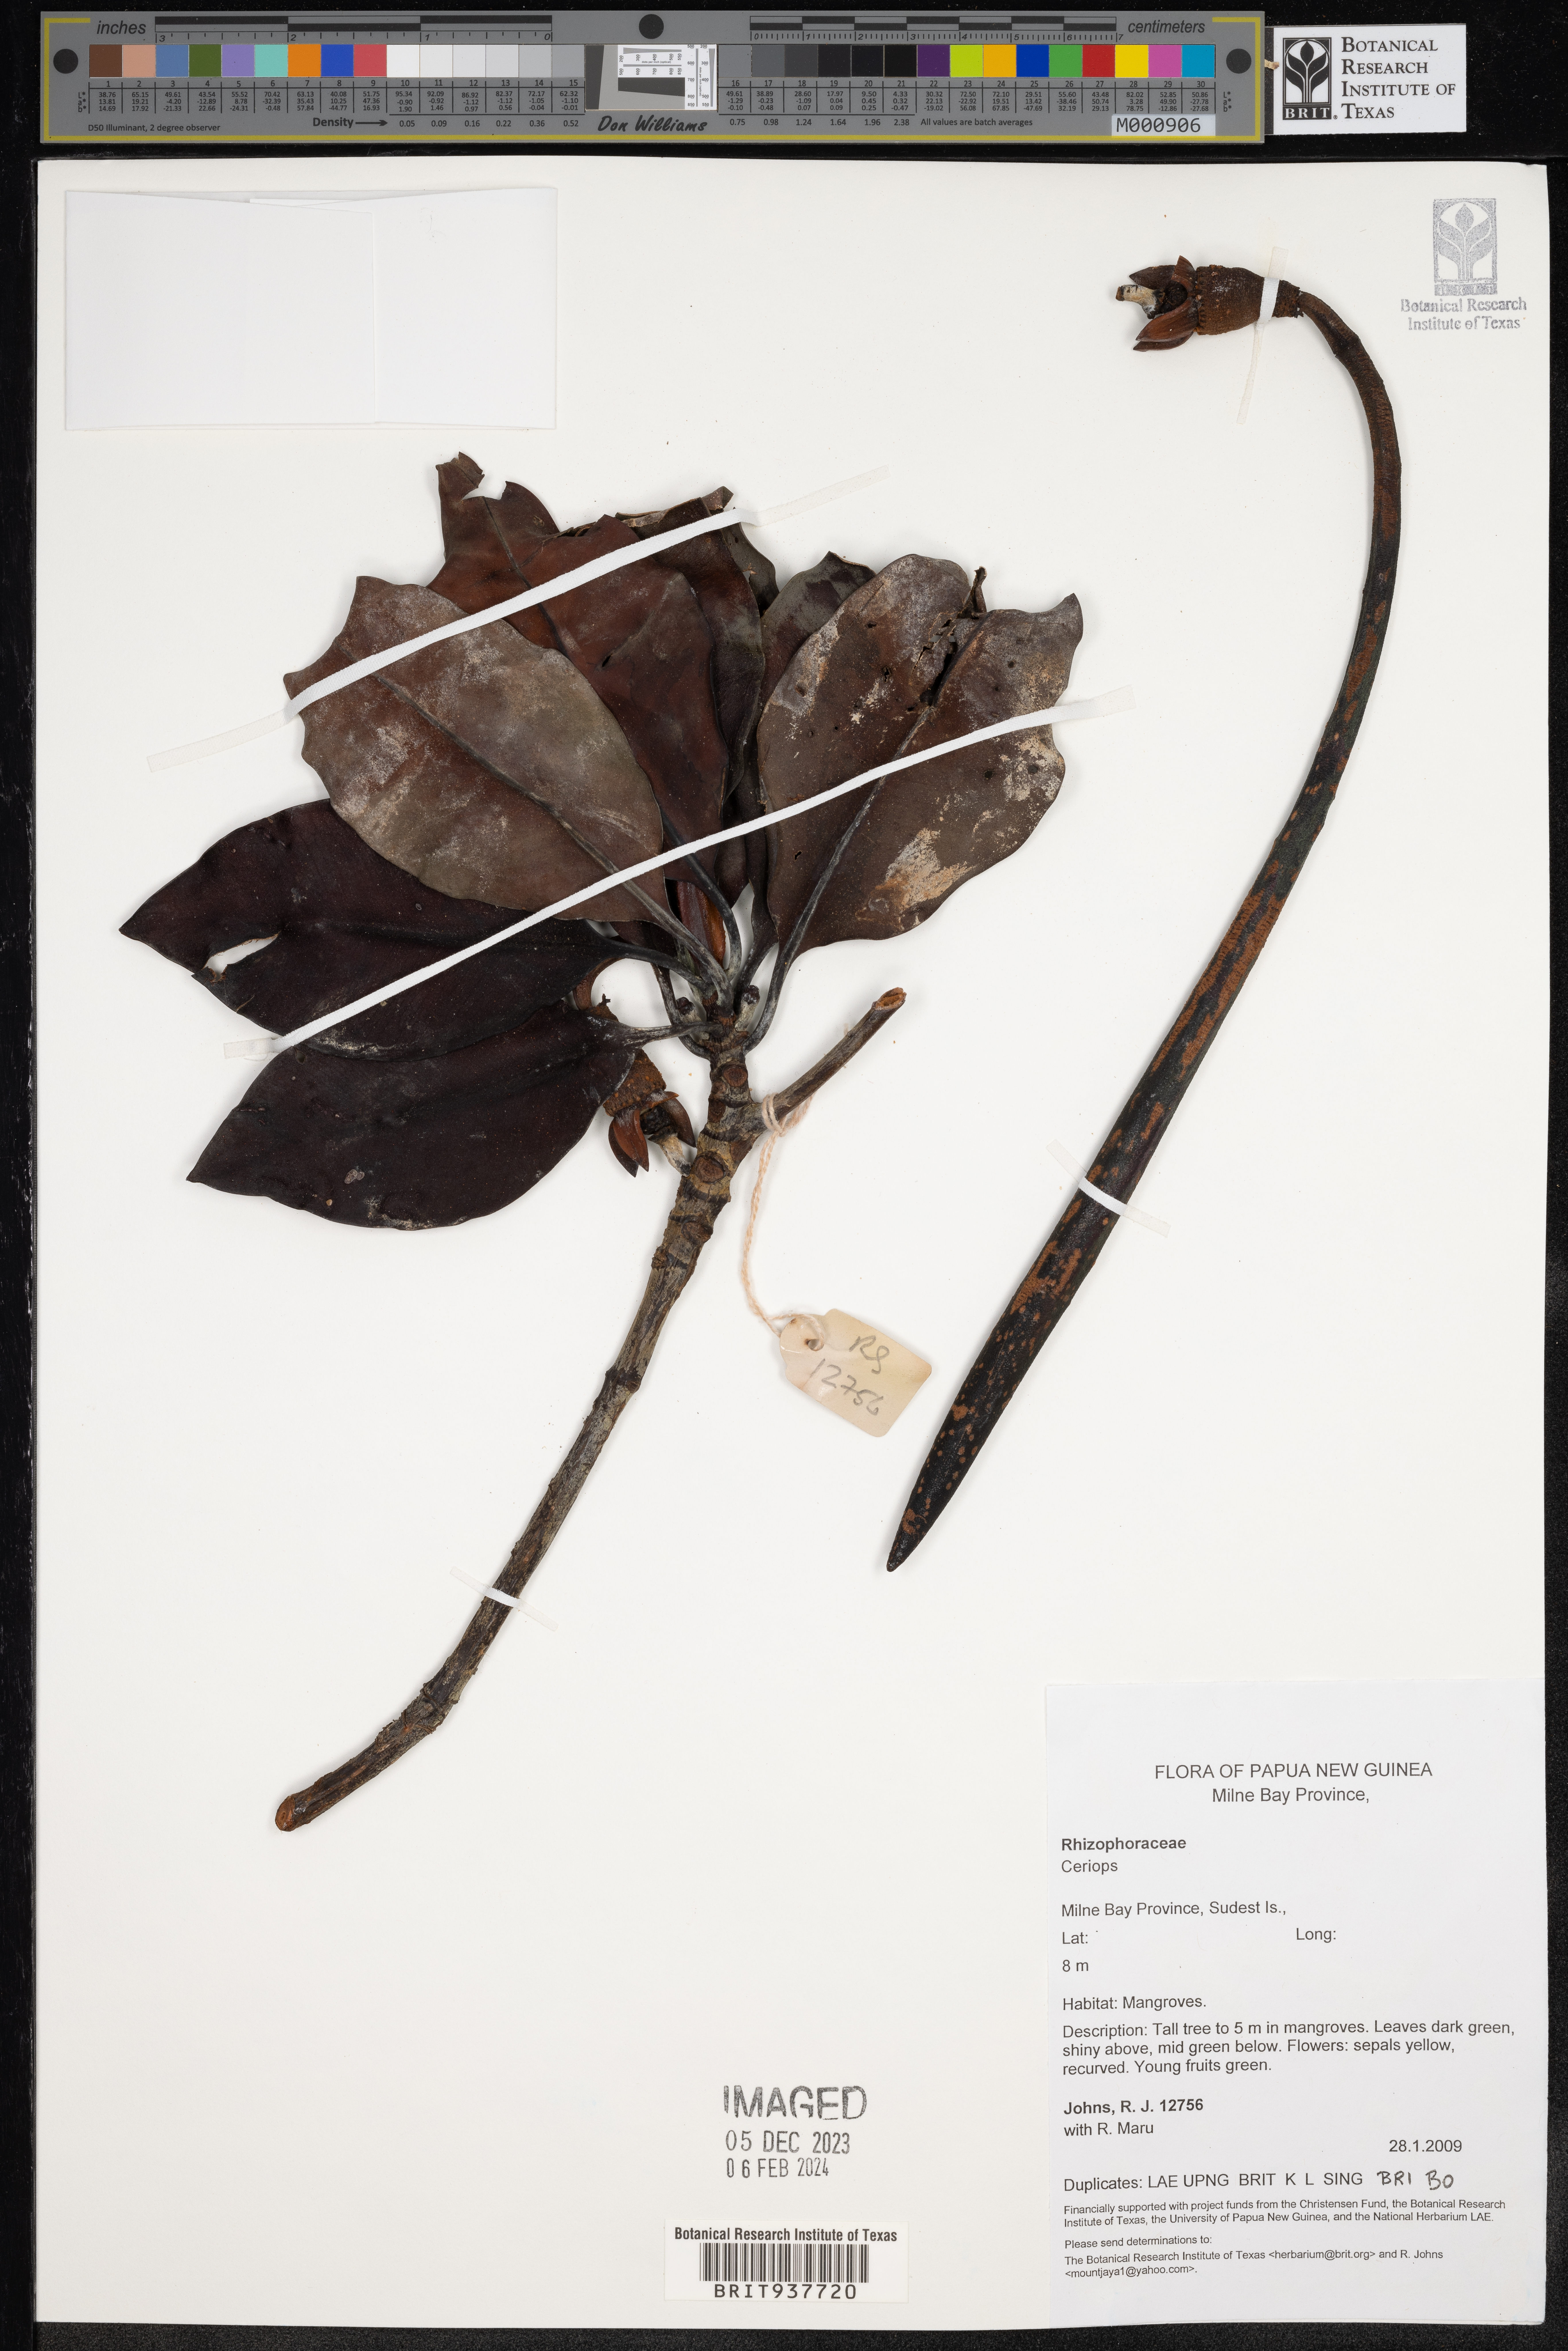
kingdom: Plantae
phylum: Tracheophyta
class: Magnoliopsida
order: Malpighiales
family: Rhizophoraceae
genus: Ceriops
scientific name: Ceriops
